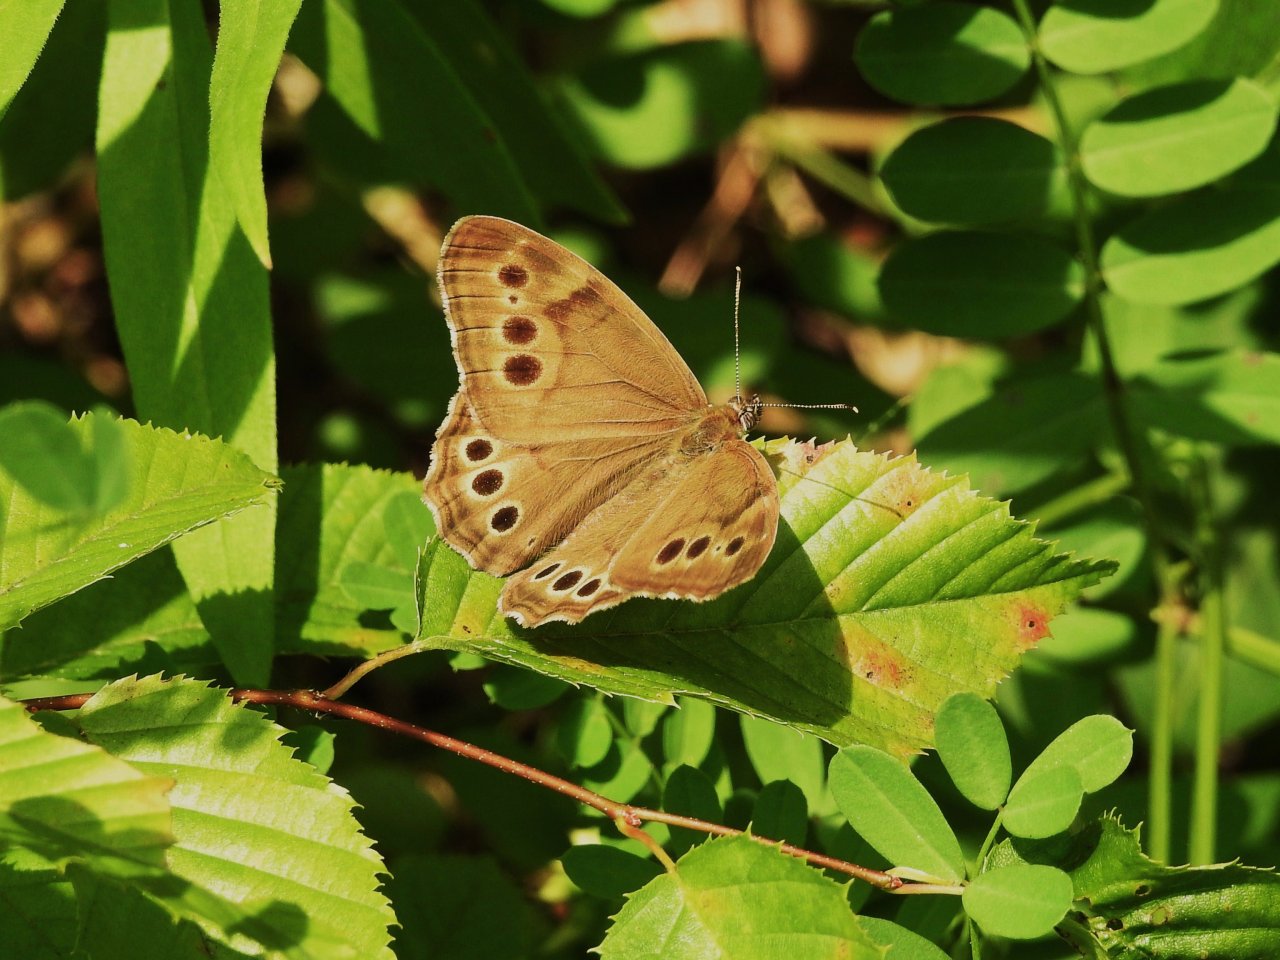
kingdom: Animalia
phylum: Arthropoda
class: Insecta
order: Lepidoptera
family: Nymphalidae
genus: Lethe
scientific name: Lethe anthedon
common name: Northern Pearly-Eye
